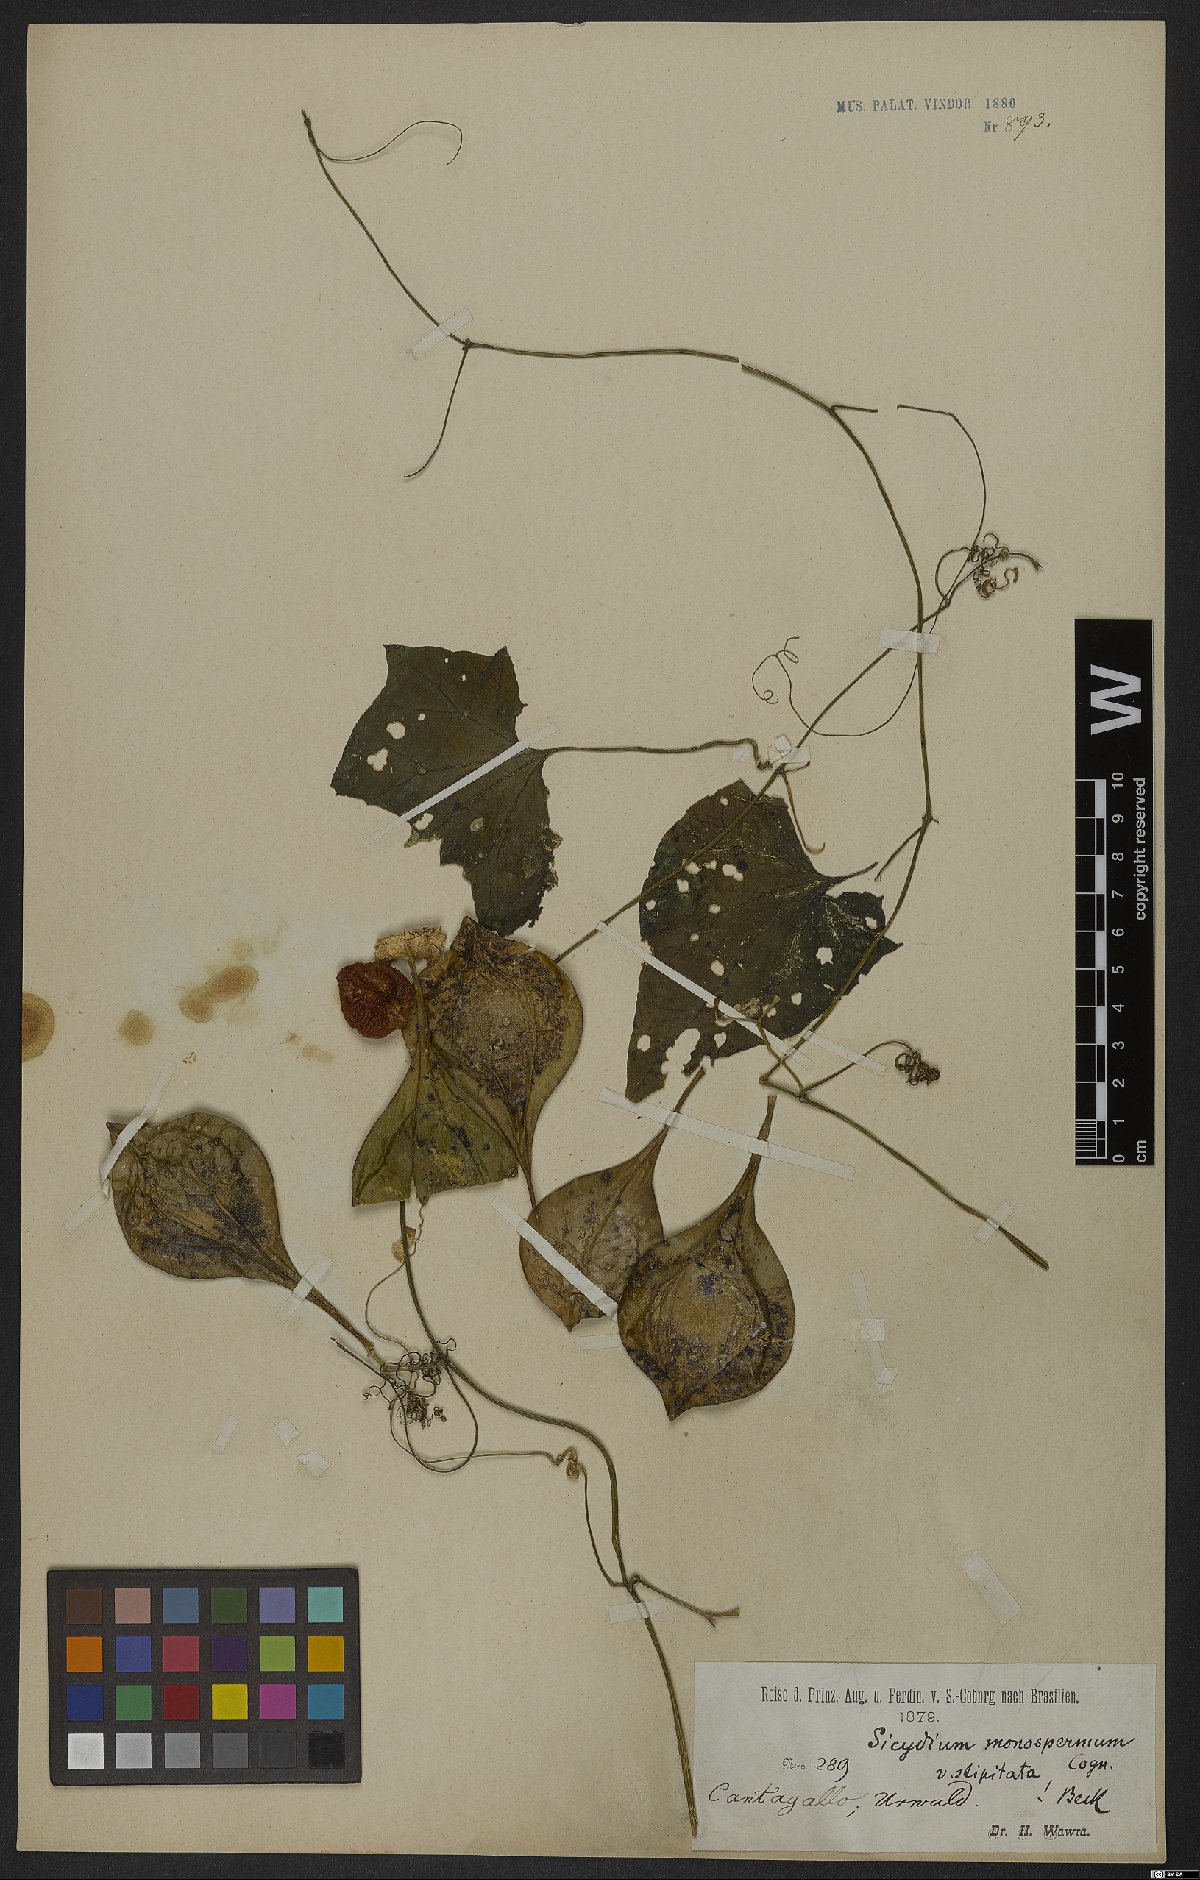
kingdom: Plantae
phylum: Tracheophyta
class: Magnoliopsida
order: Cucurbitales
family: Cucurbitaceae
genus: Pteropepon
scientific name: Pteropepon monospermus
